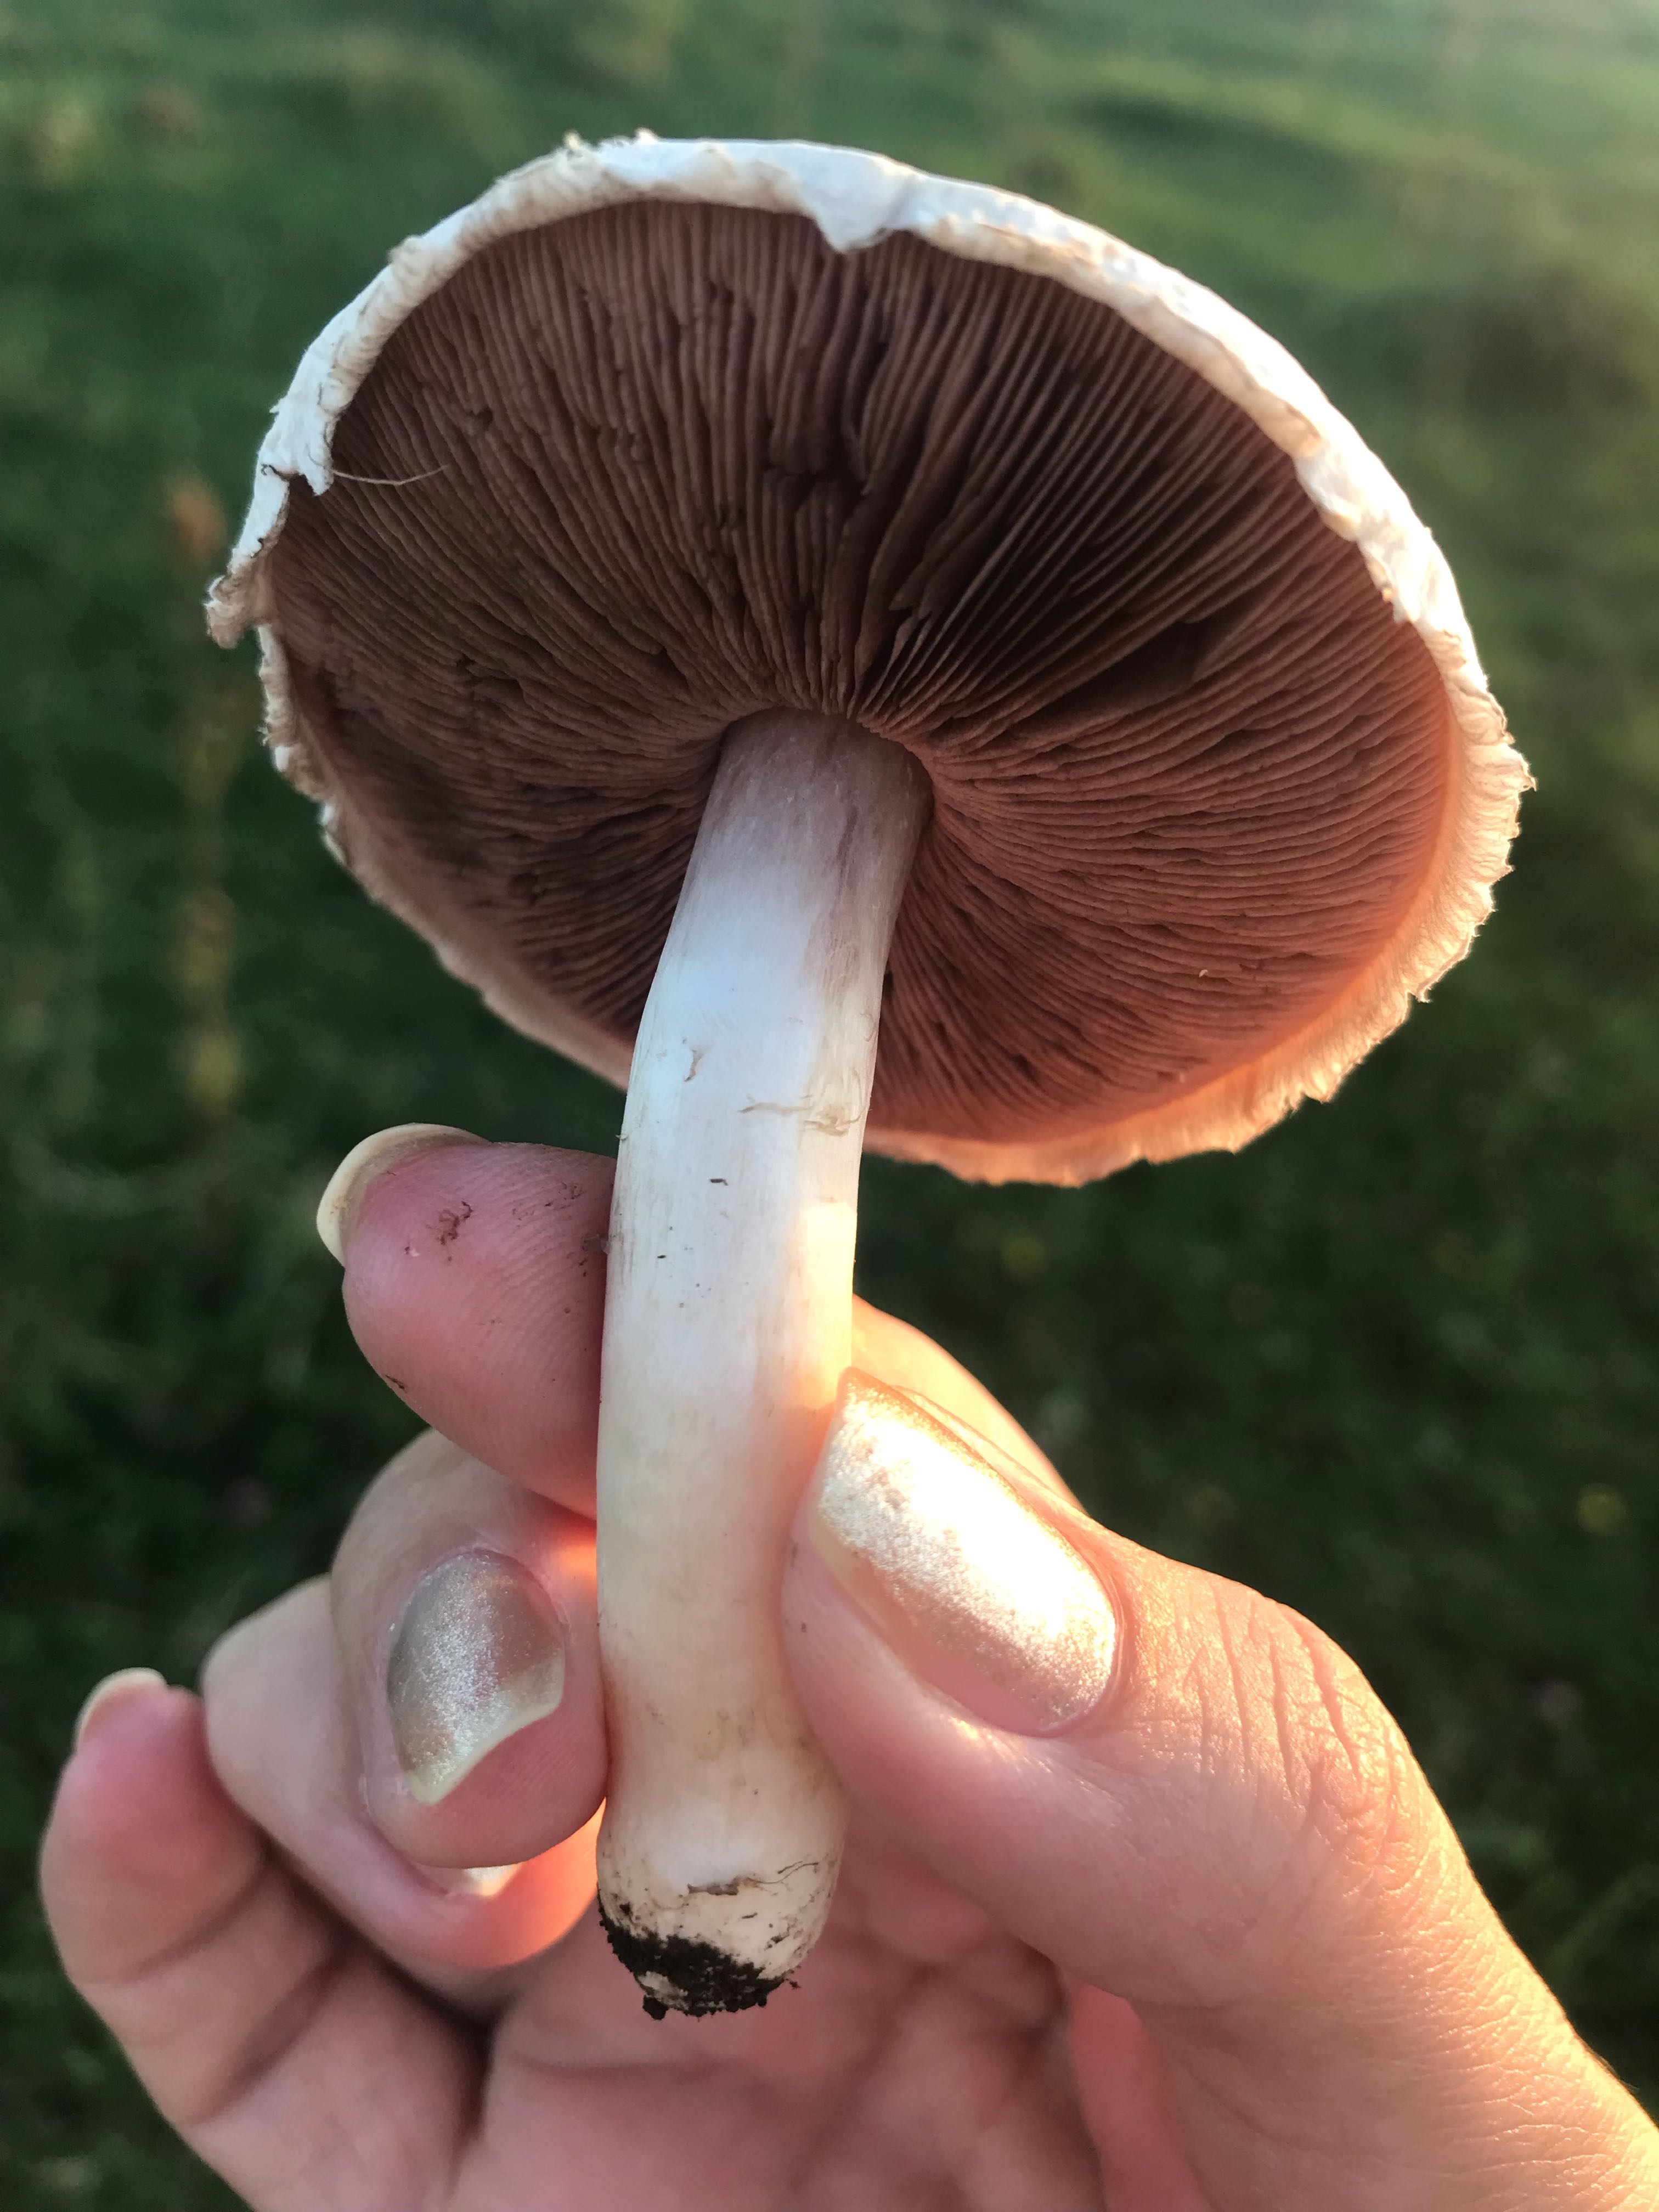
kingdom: Fungi
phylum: Basidiomycota
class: Agaricomycetes
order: Agaricales
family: Agaricaceae
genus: Agaricus
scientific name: Agaricus campestris
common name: mark-champignon
